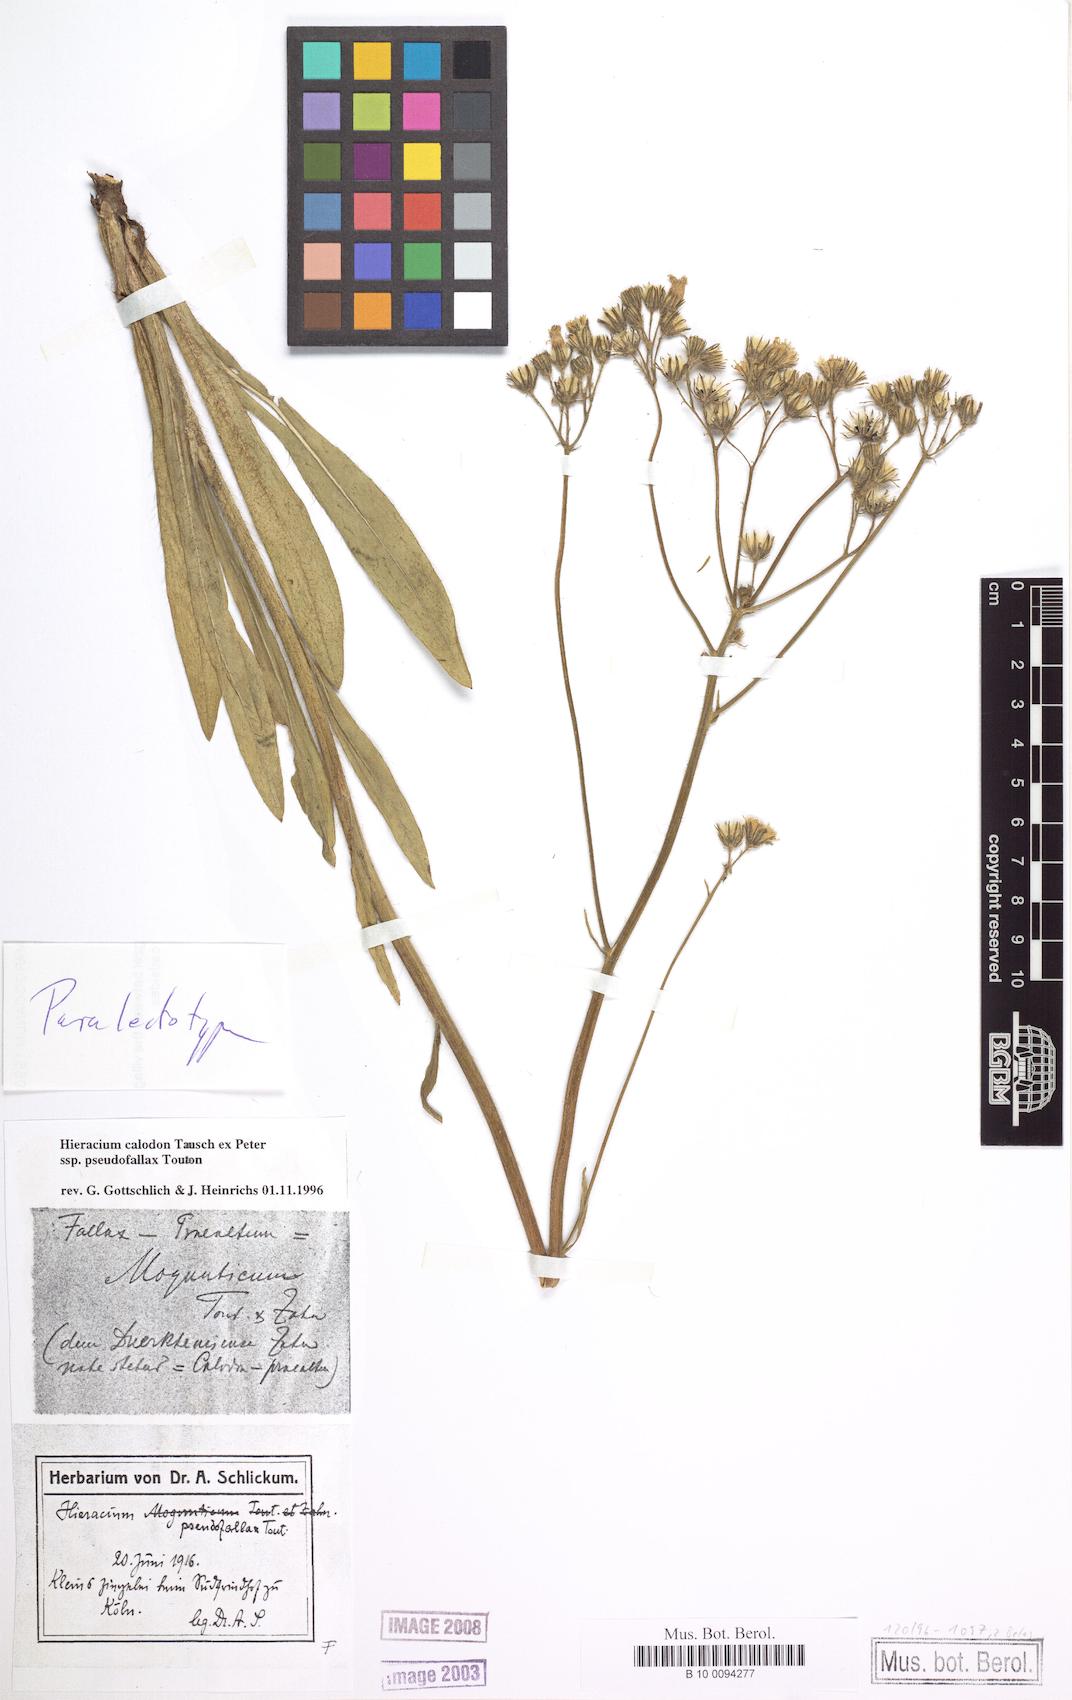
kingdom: Plantae
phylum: Tracheophyta
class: Magnoliopsida
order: Asterales
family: Asteraceae
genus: Pilosella
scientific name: Pilosella calodon
